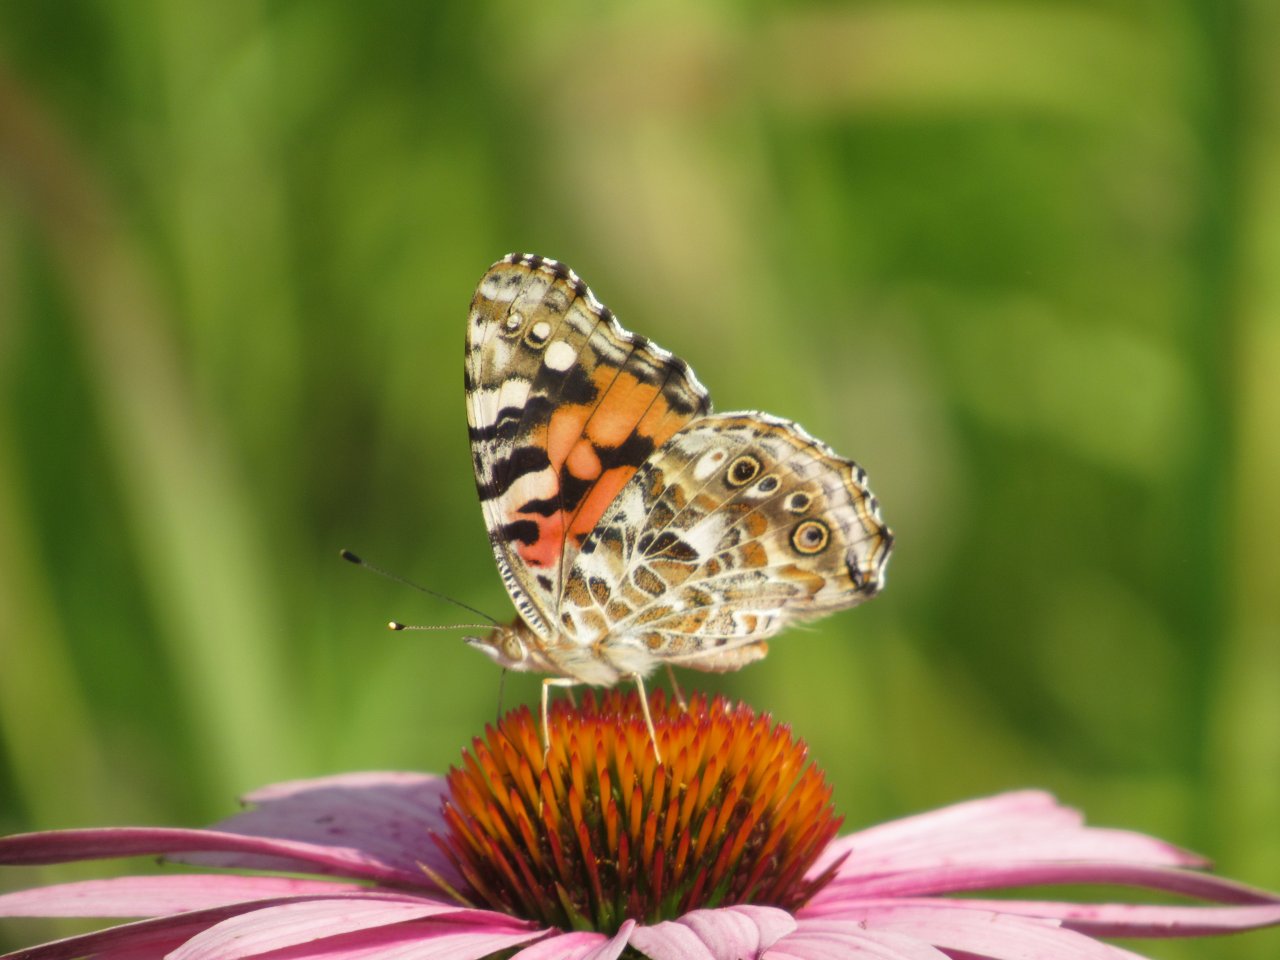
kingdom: Animalia
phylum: Arthropoda
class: Insecta
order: Lepidoptera
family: Nymphalidae
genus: Vanessa
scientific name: Vanessa cardui
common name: Painted Lady
